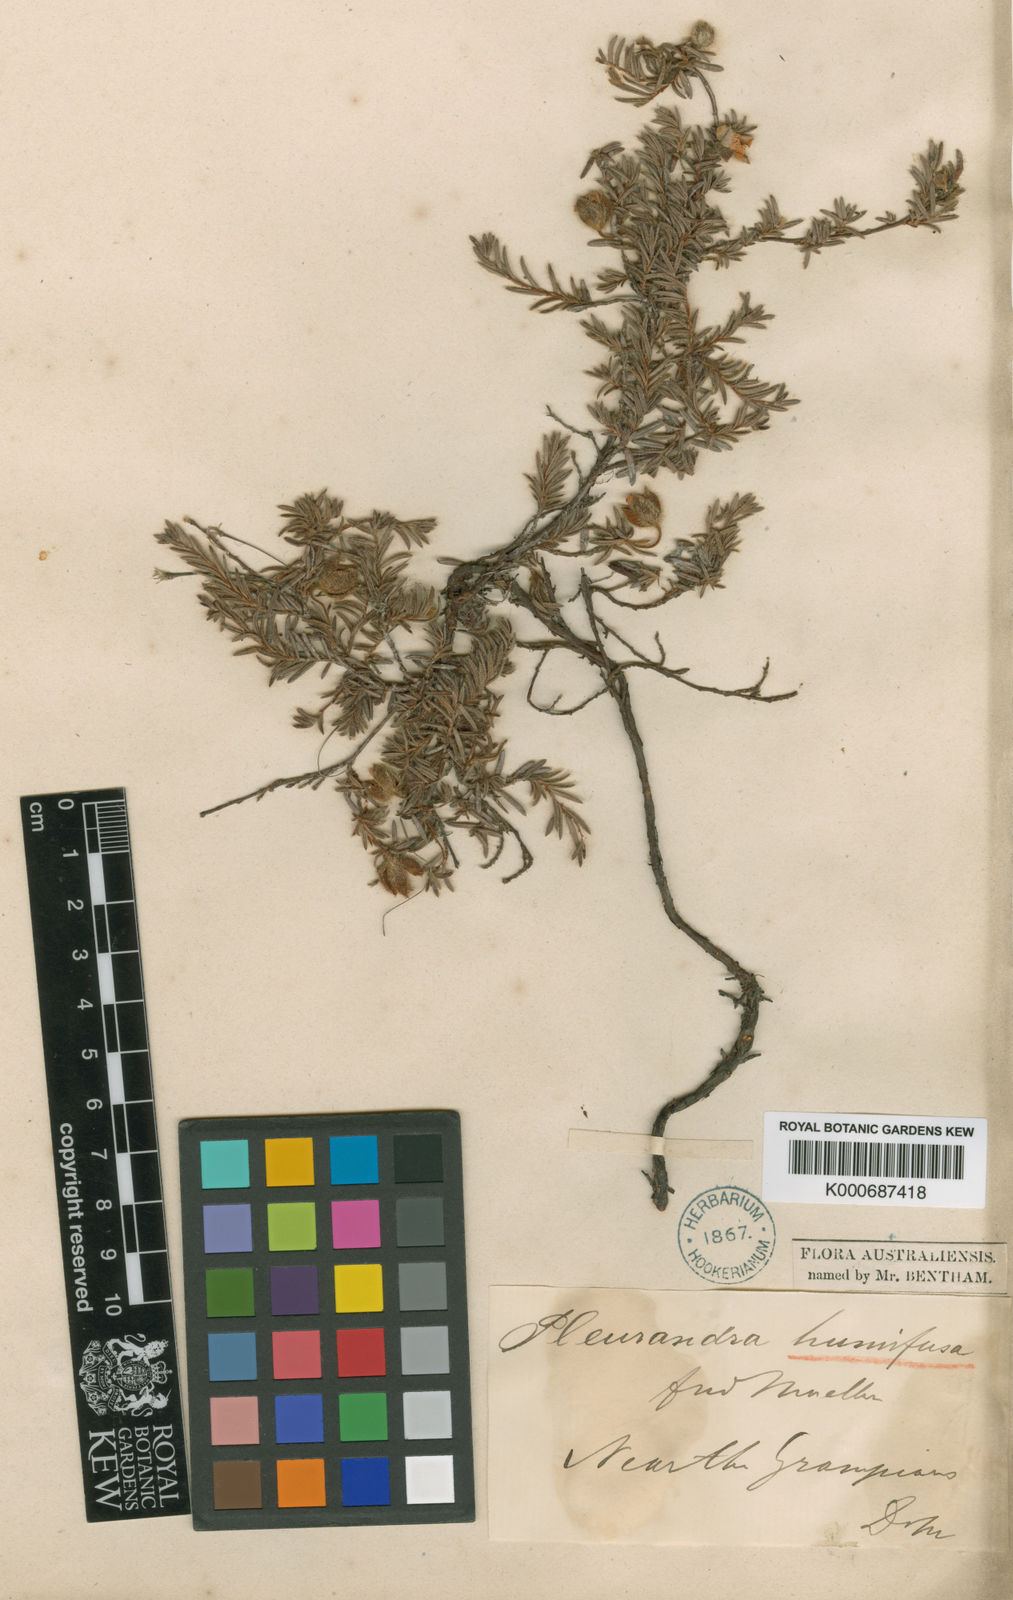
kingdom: Plantae
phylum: Tracheophyta
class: Magnoliopsida
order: Dilleniales
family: Dilleniaceae
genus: Hibbertia
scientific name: Hibbertia stricta
